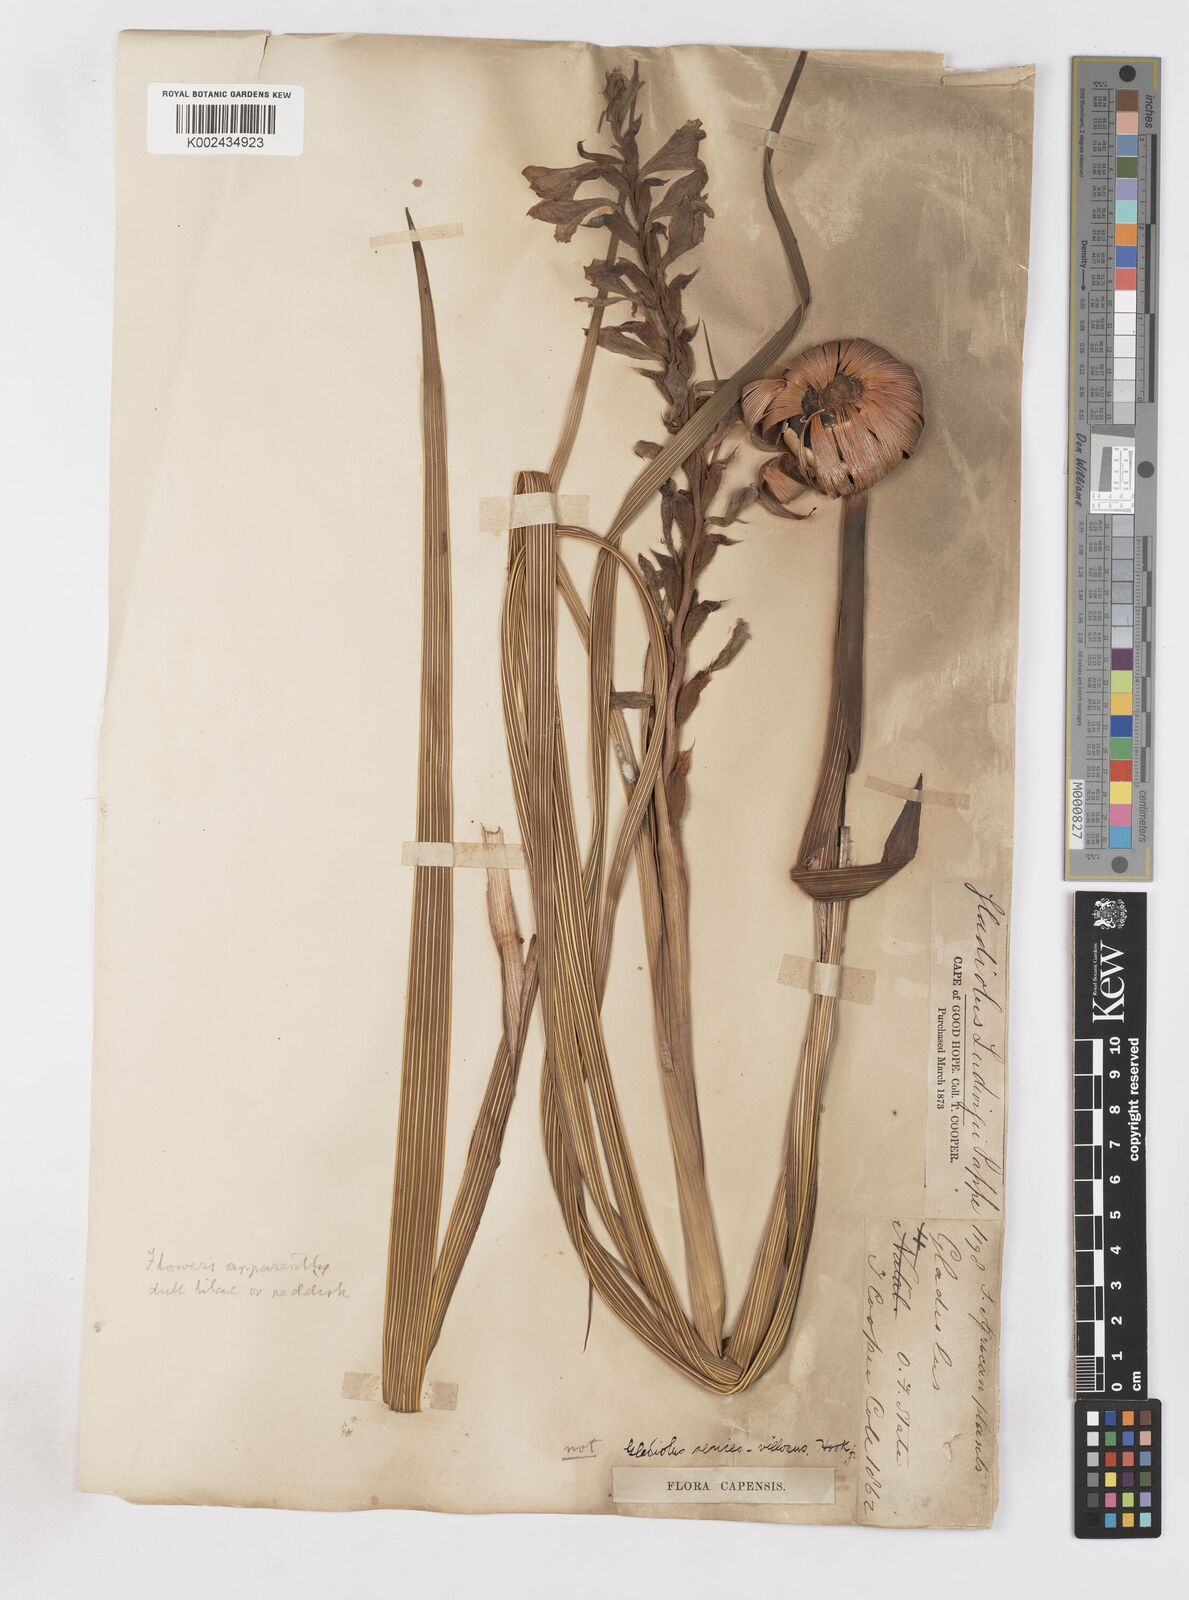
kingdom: Plantae
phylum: Tracheophyta
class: Liliopsida
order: Asparagales
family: Iridaceae
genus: Gladiolus
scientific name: Gladiolus sericeovillosus
